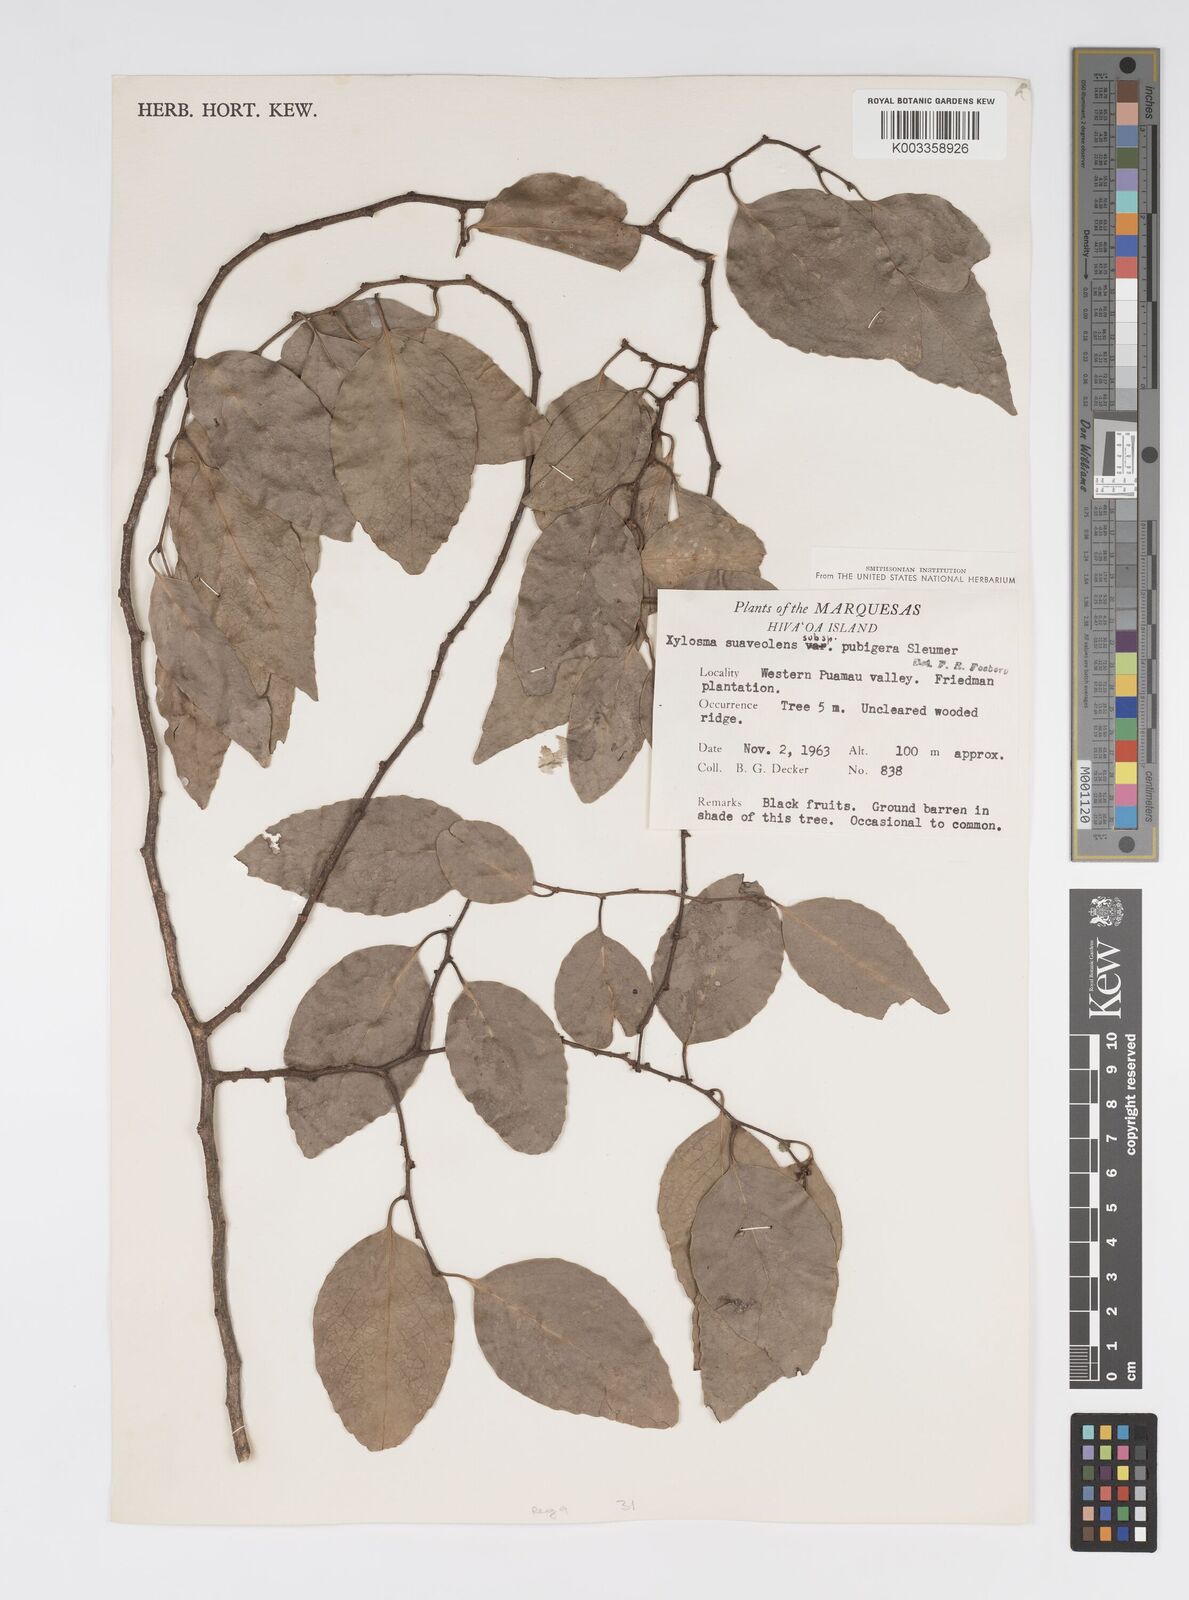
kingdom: Plantae
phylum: Tracheophyta
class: Magnoliopsida
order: Malpighiales
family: Salicaceae
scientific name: Salicaceae
